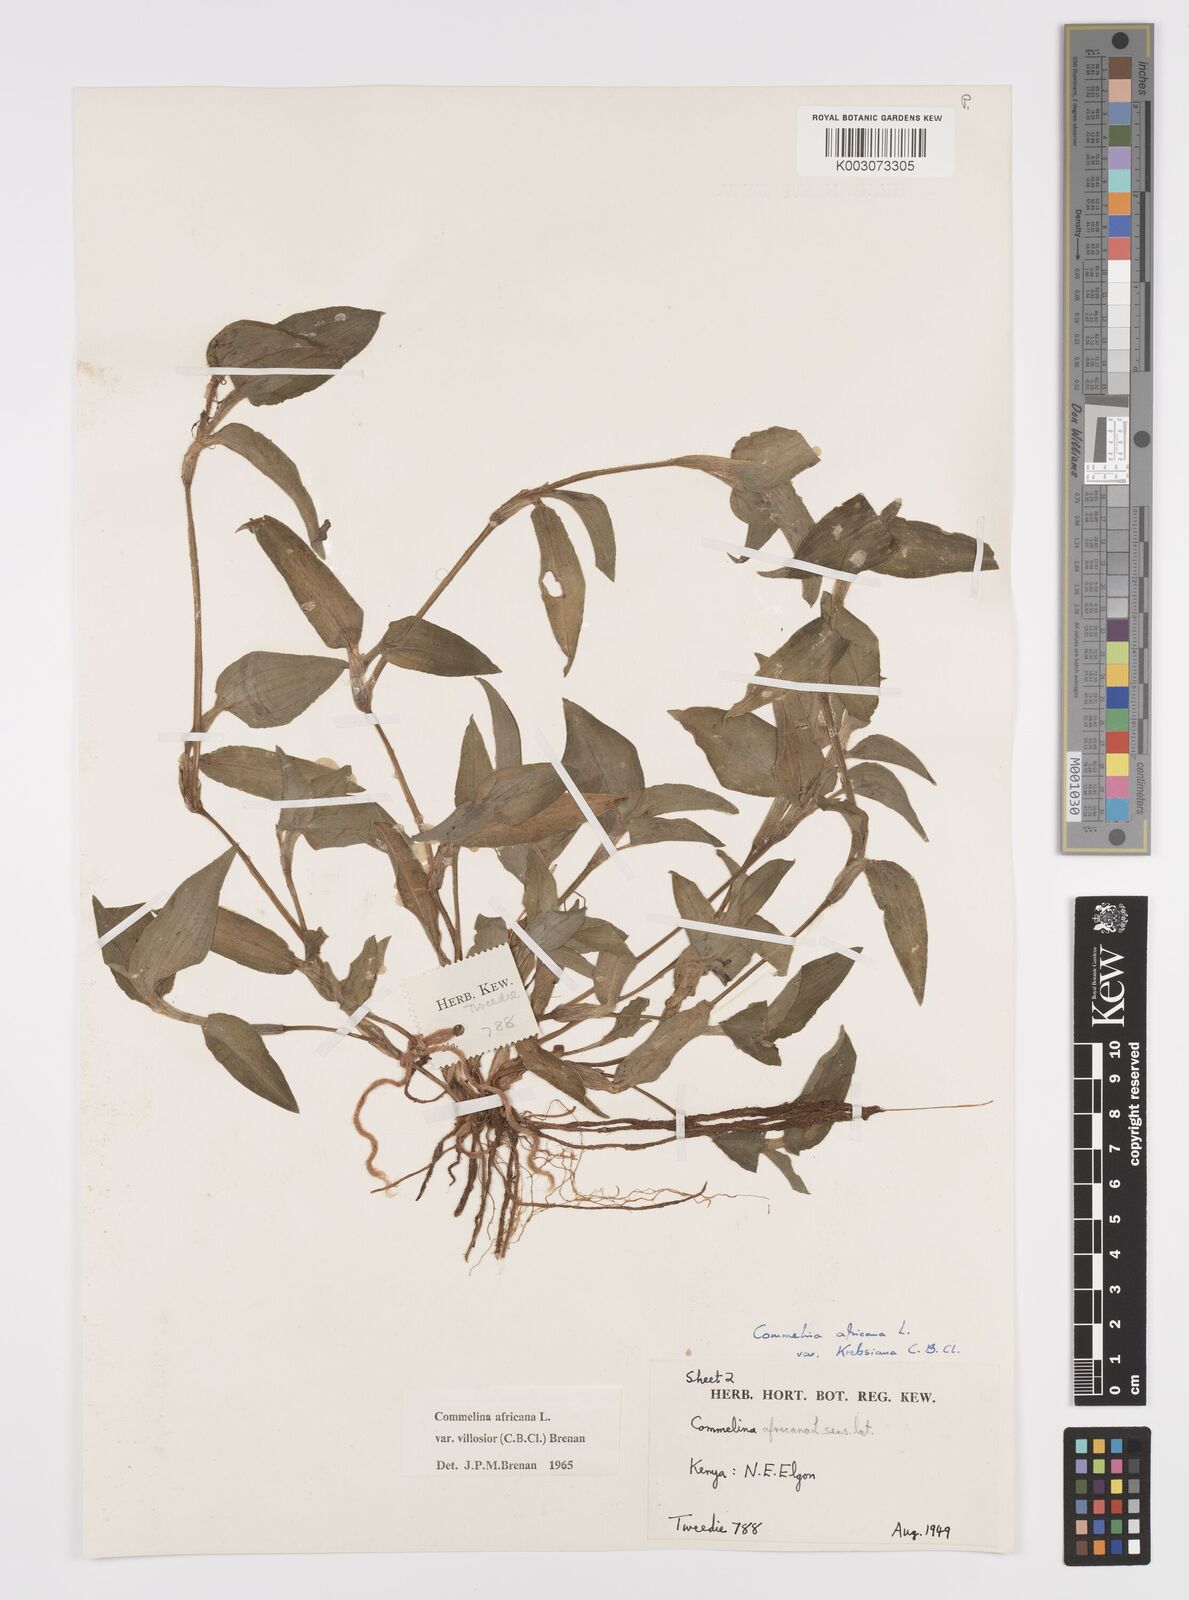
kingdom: Plantae
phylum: Tracheophyta
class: Liliopsida
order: Commelinales
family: Commelinaceae
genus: Commelina
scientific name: Commelina africana
